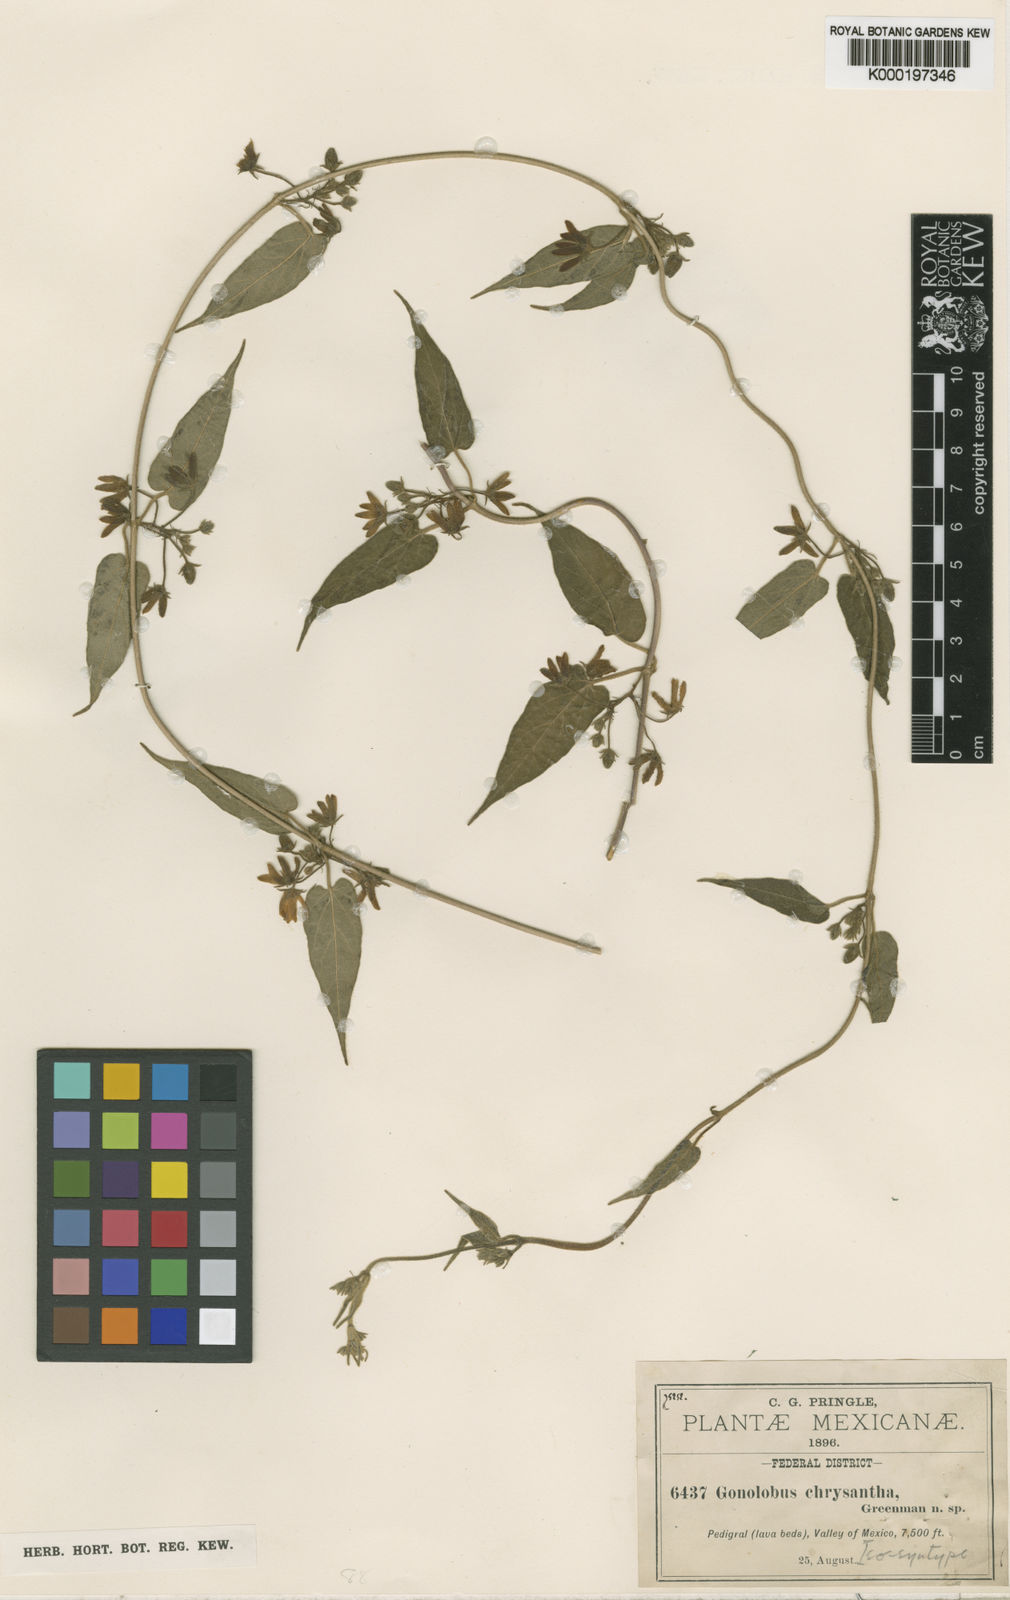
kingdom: Plantae
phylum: Tracheophyta
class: Magnoliopsida
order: Gentianales
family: Apocynaceae
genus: Matelea
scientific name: Matelea chrysantha
